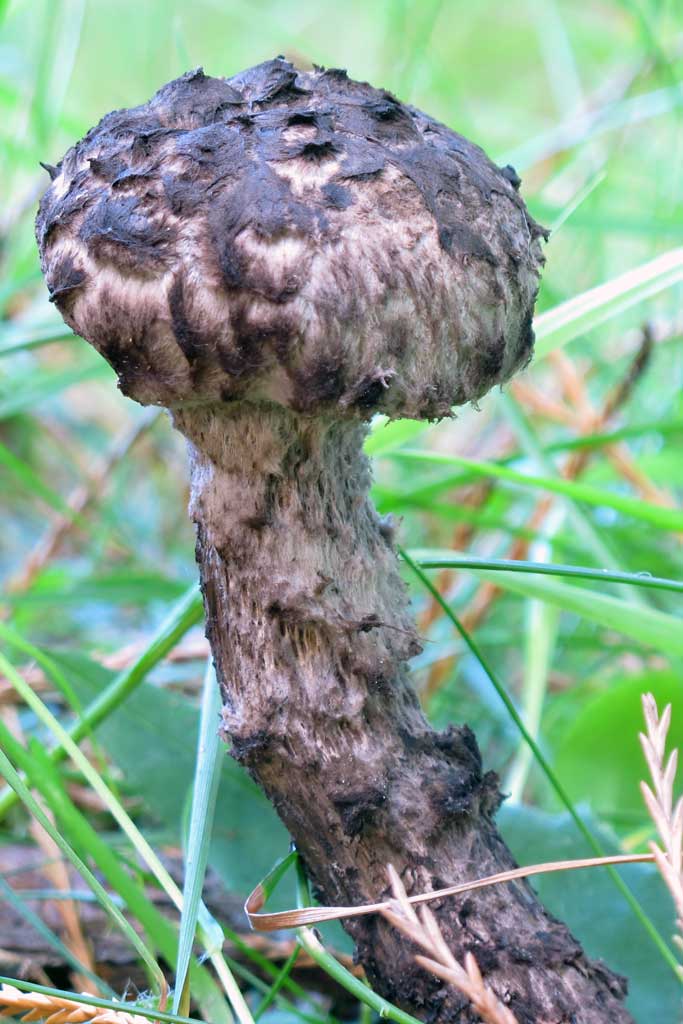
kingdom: Fungi
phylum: Basidiomycota
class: Agaricomycetes
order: Boletales
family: Boletaceae
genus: Strobilomyces
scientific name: Strobilomyces strobilaceus
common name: koglerørhat
